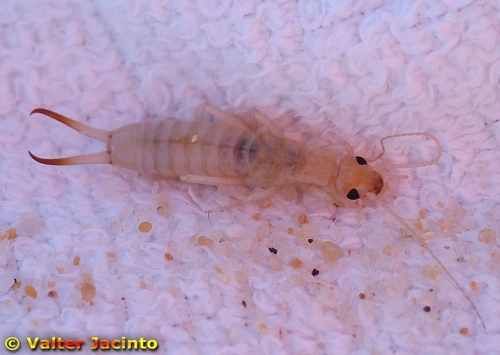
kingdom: Animalia
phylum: Arthropoda
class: Insecta
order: Dermaptera
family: Labiduridae
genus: Labidura
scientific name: Labidura riparia
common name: Striped earwig
